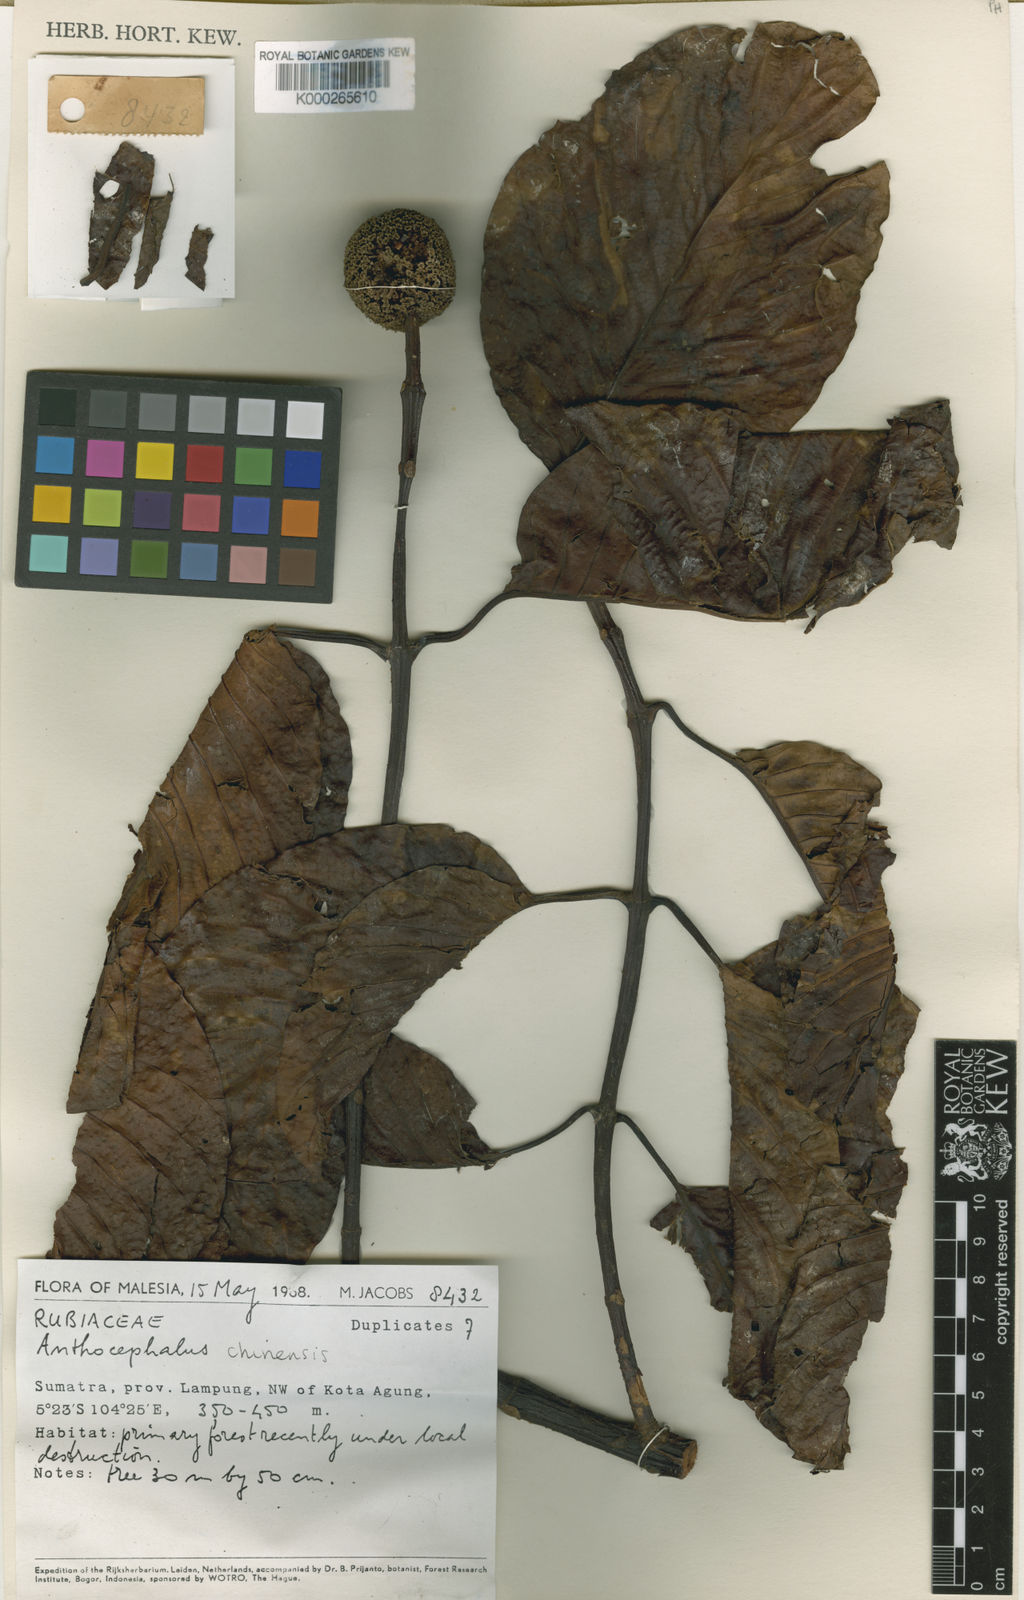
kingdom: Plantae
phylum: Tracheophyta
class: Magnoliopsida
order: Gentianales
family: Rubiaceae
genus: Neolamarckia
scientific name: Neolamarckia cadamba
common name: Leichhardt-pine
